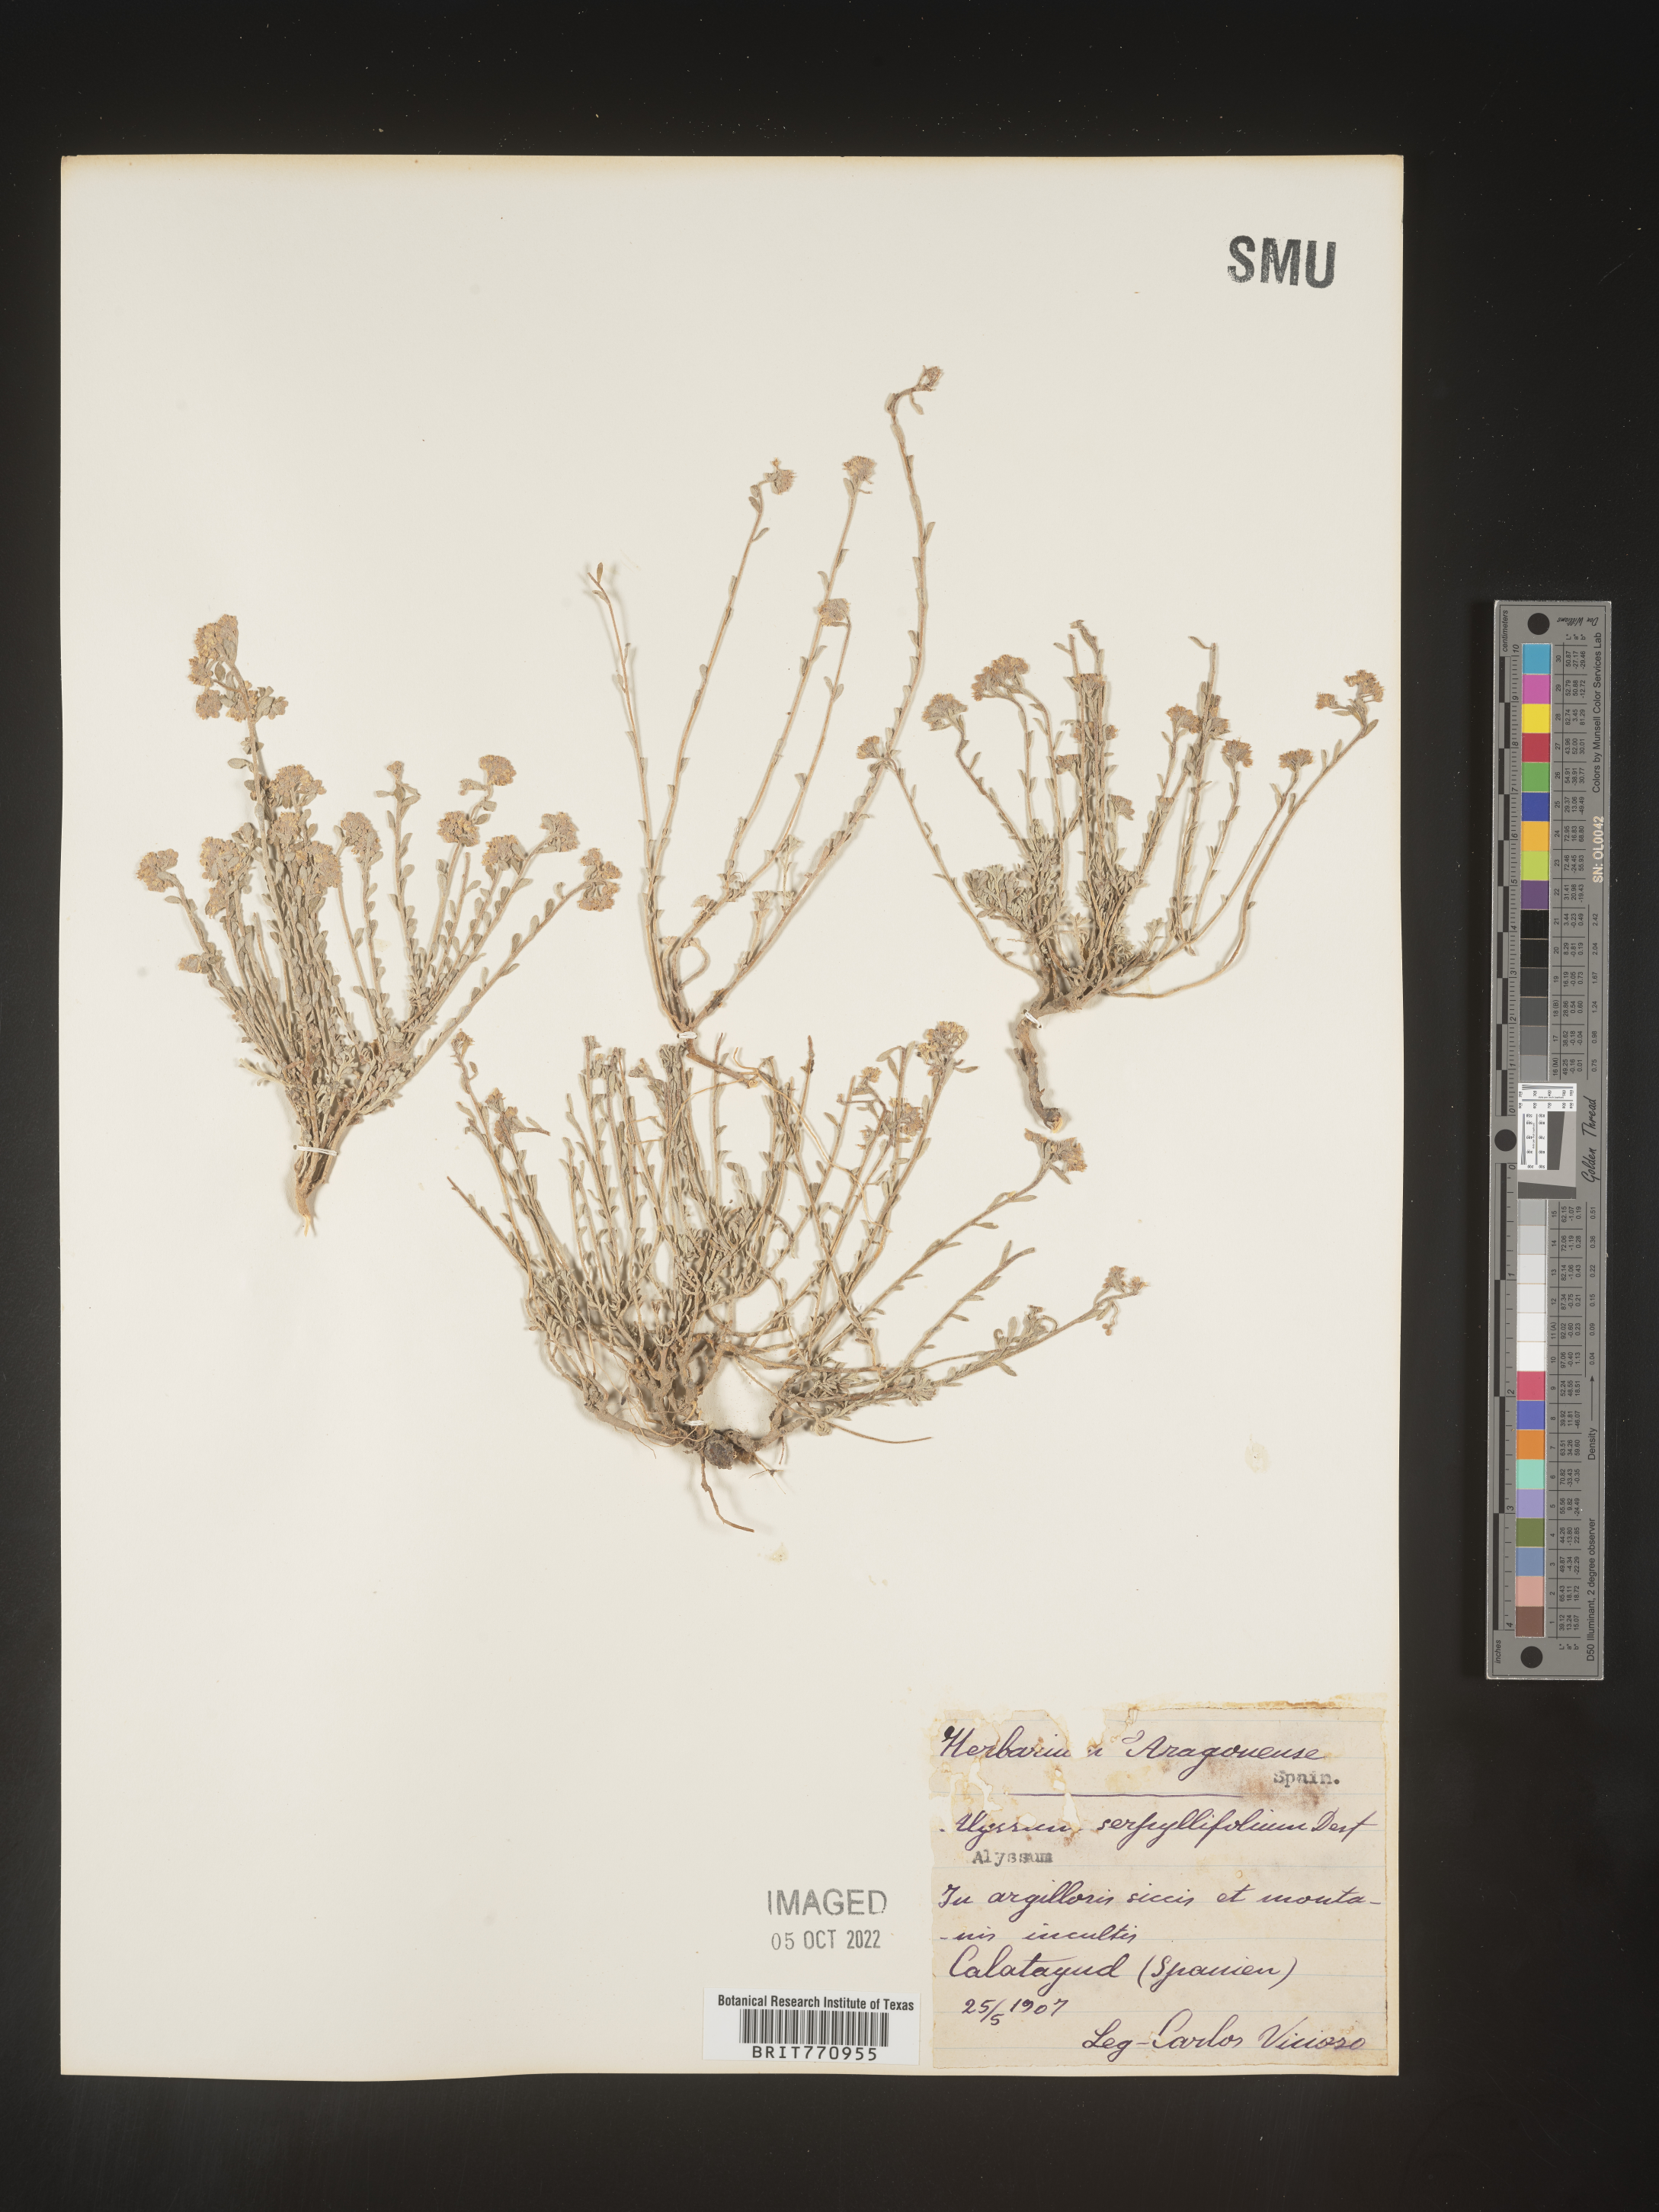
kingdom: Plantae
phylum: Tracheophyta
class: Magnoliopsida
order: Brassicales
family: Brassicaceae
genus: Alyssum
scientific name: Alyssum
